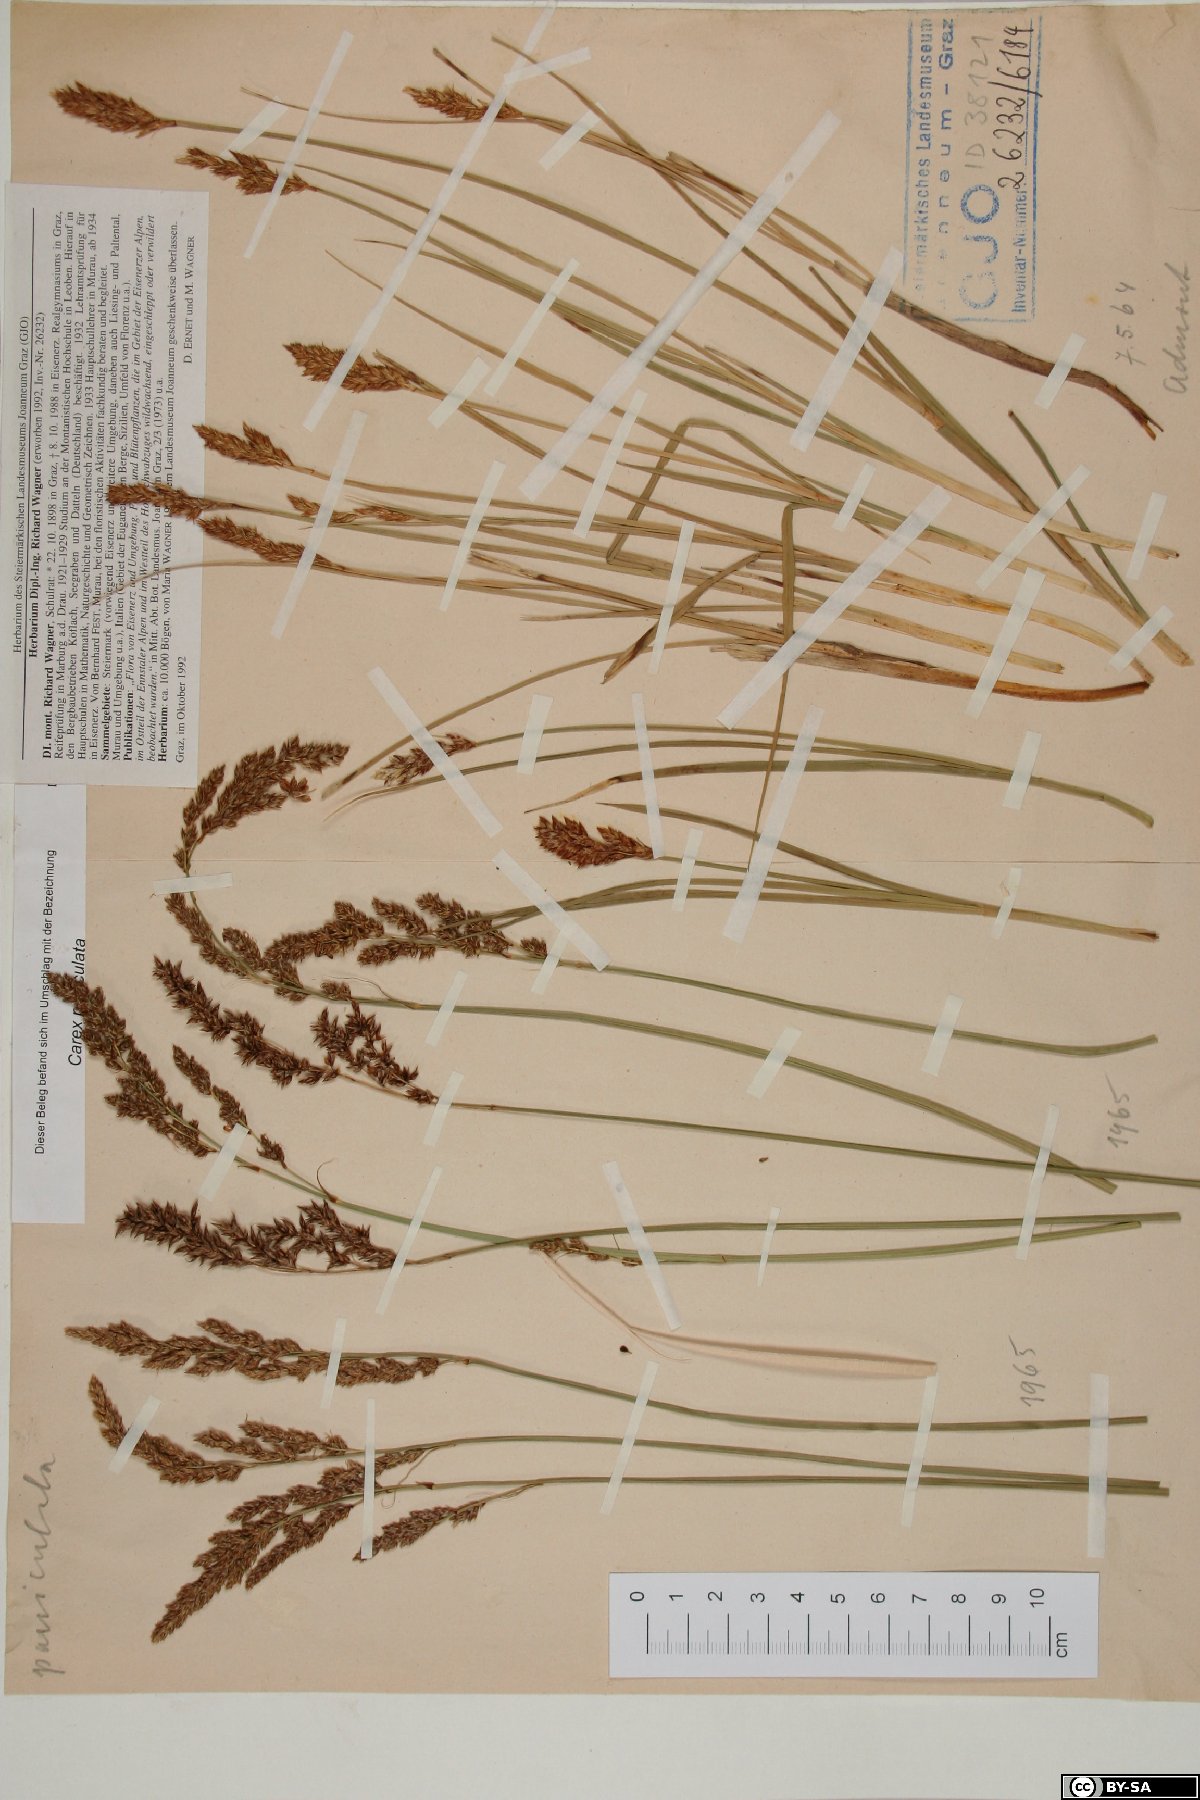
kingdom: Plantae
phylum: Tracheophyta
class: Liliopsida
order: Poales
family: Cyperaceae
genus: Carex
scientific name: Carex paniculata
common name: Greater tussock-sedge
